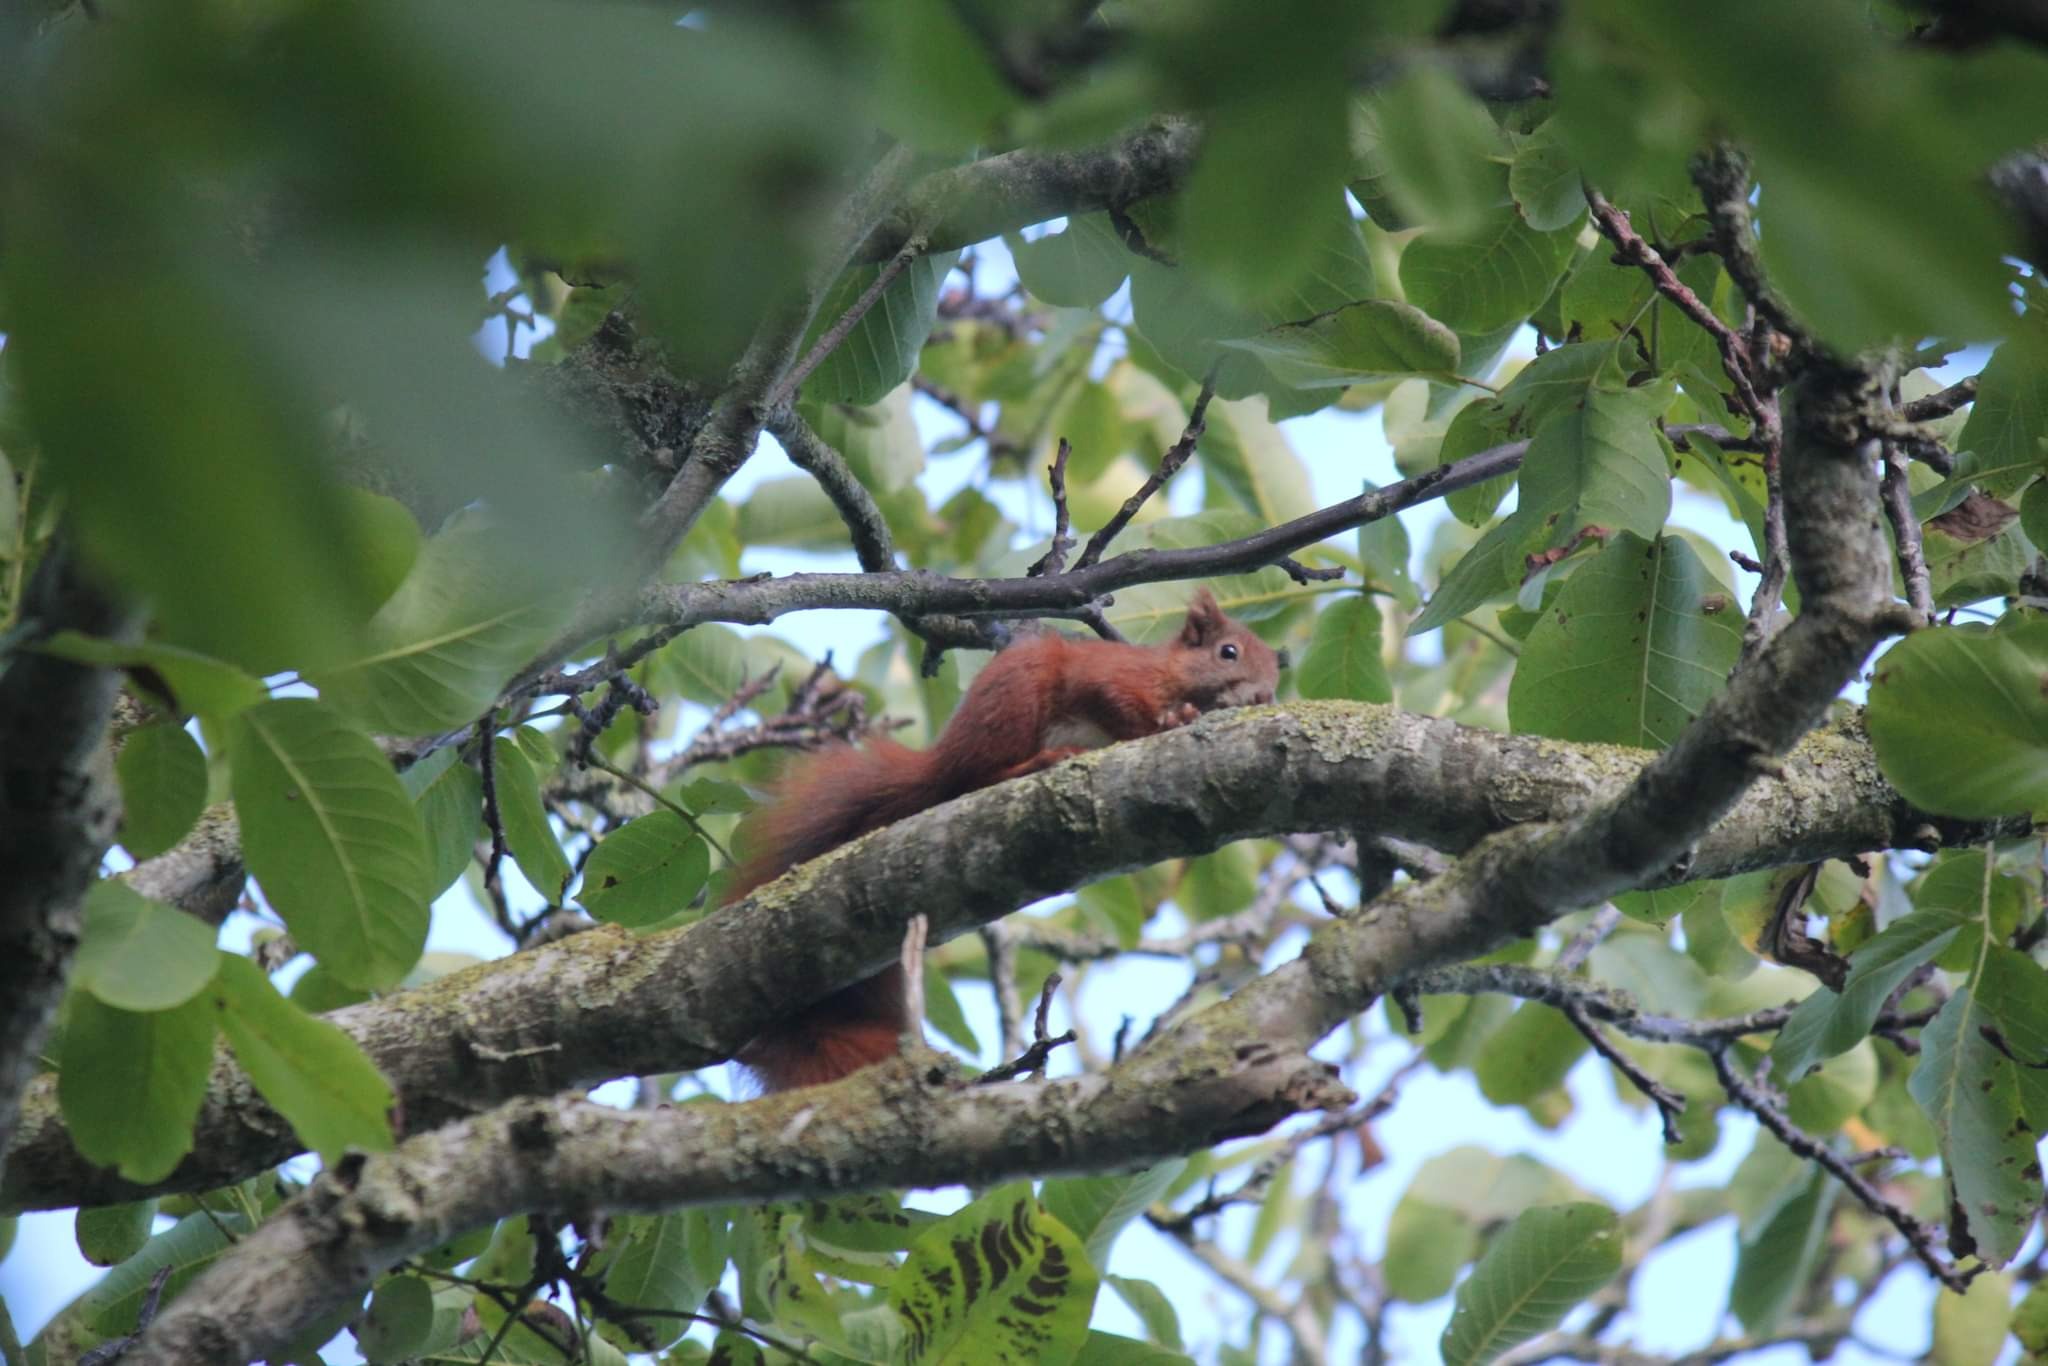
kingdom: Animalia
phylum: Chordata
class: Mammalia
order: Rodentia
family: Sciuridae
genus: Sciurus
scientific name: Sciurus vulgaris
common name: Egern
